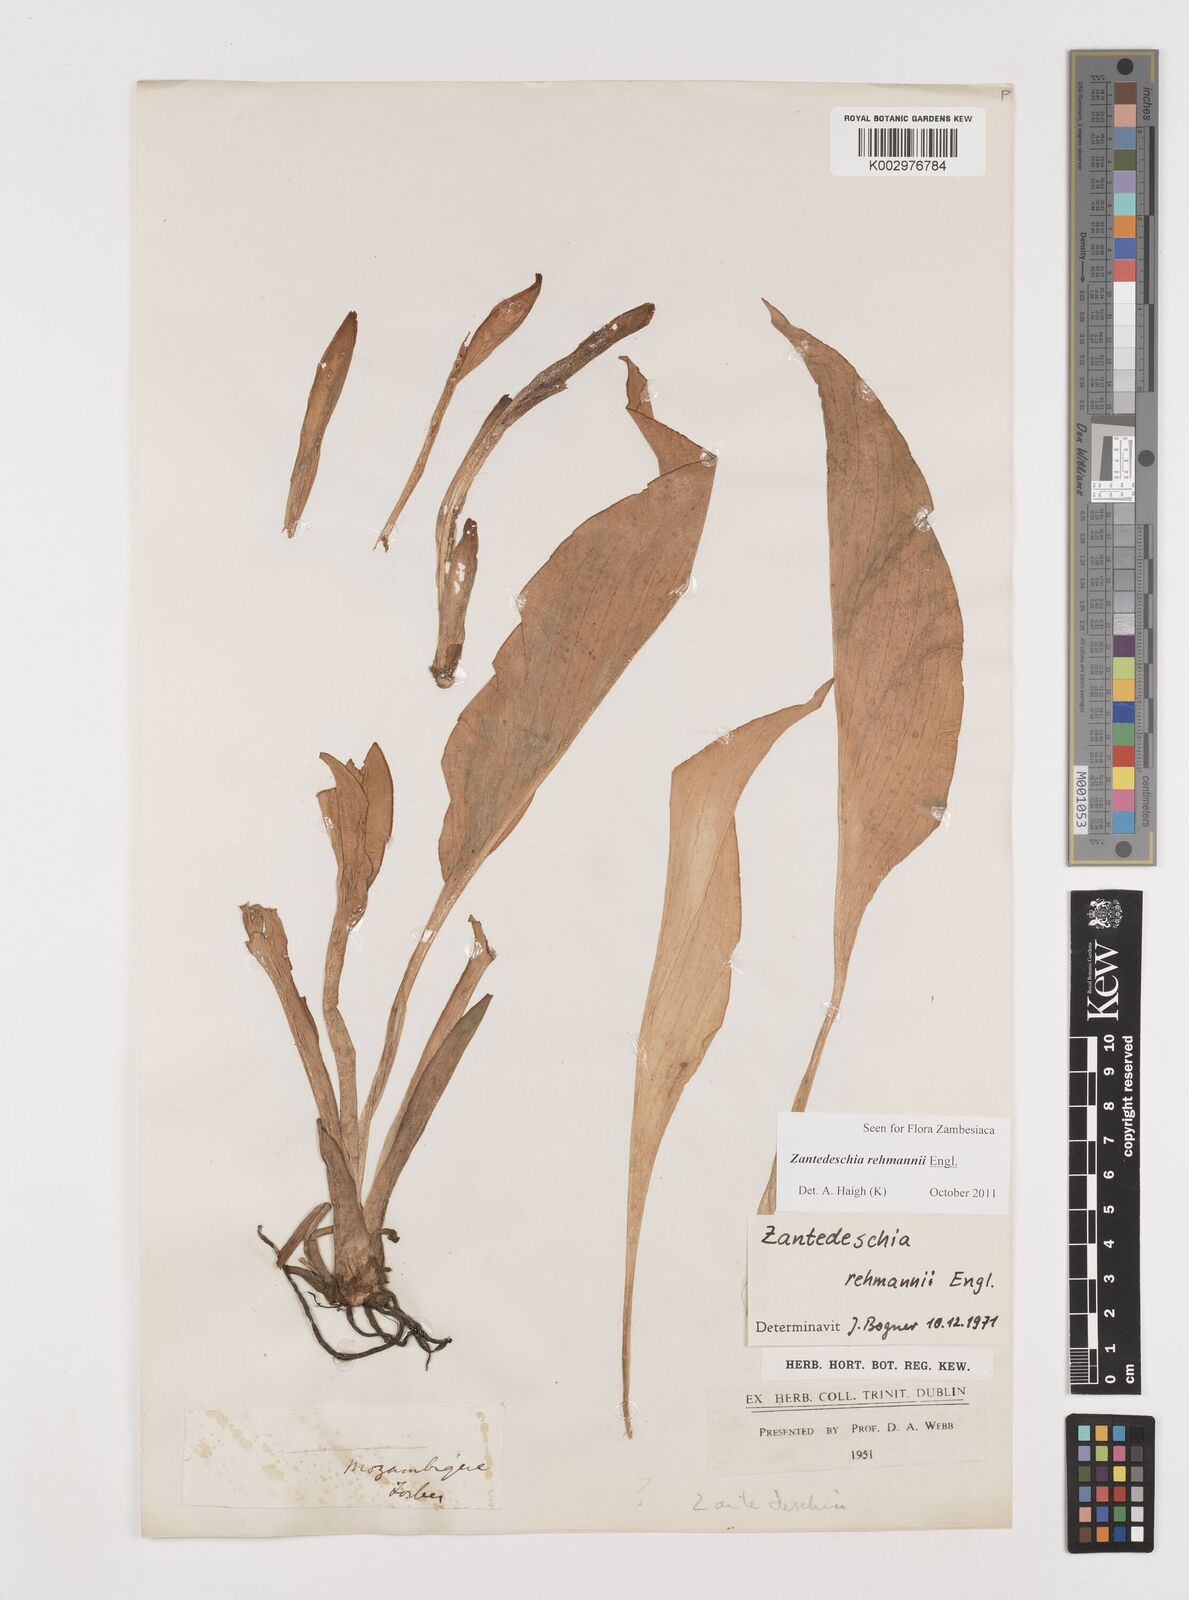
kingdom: Plantae
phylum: Tracheophyta
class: Liliopsida
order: Alismatales
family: Araceae
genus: Zantedeschia
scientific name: Zantedeschia rehmannii
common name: Red calla
